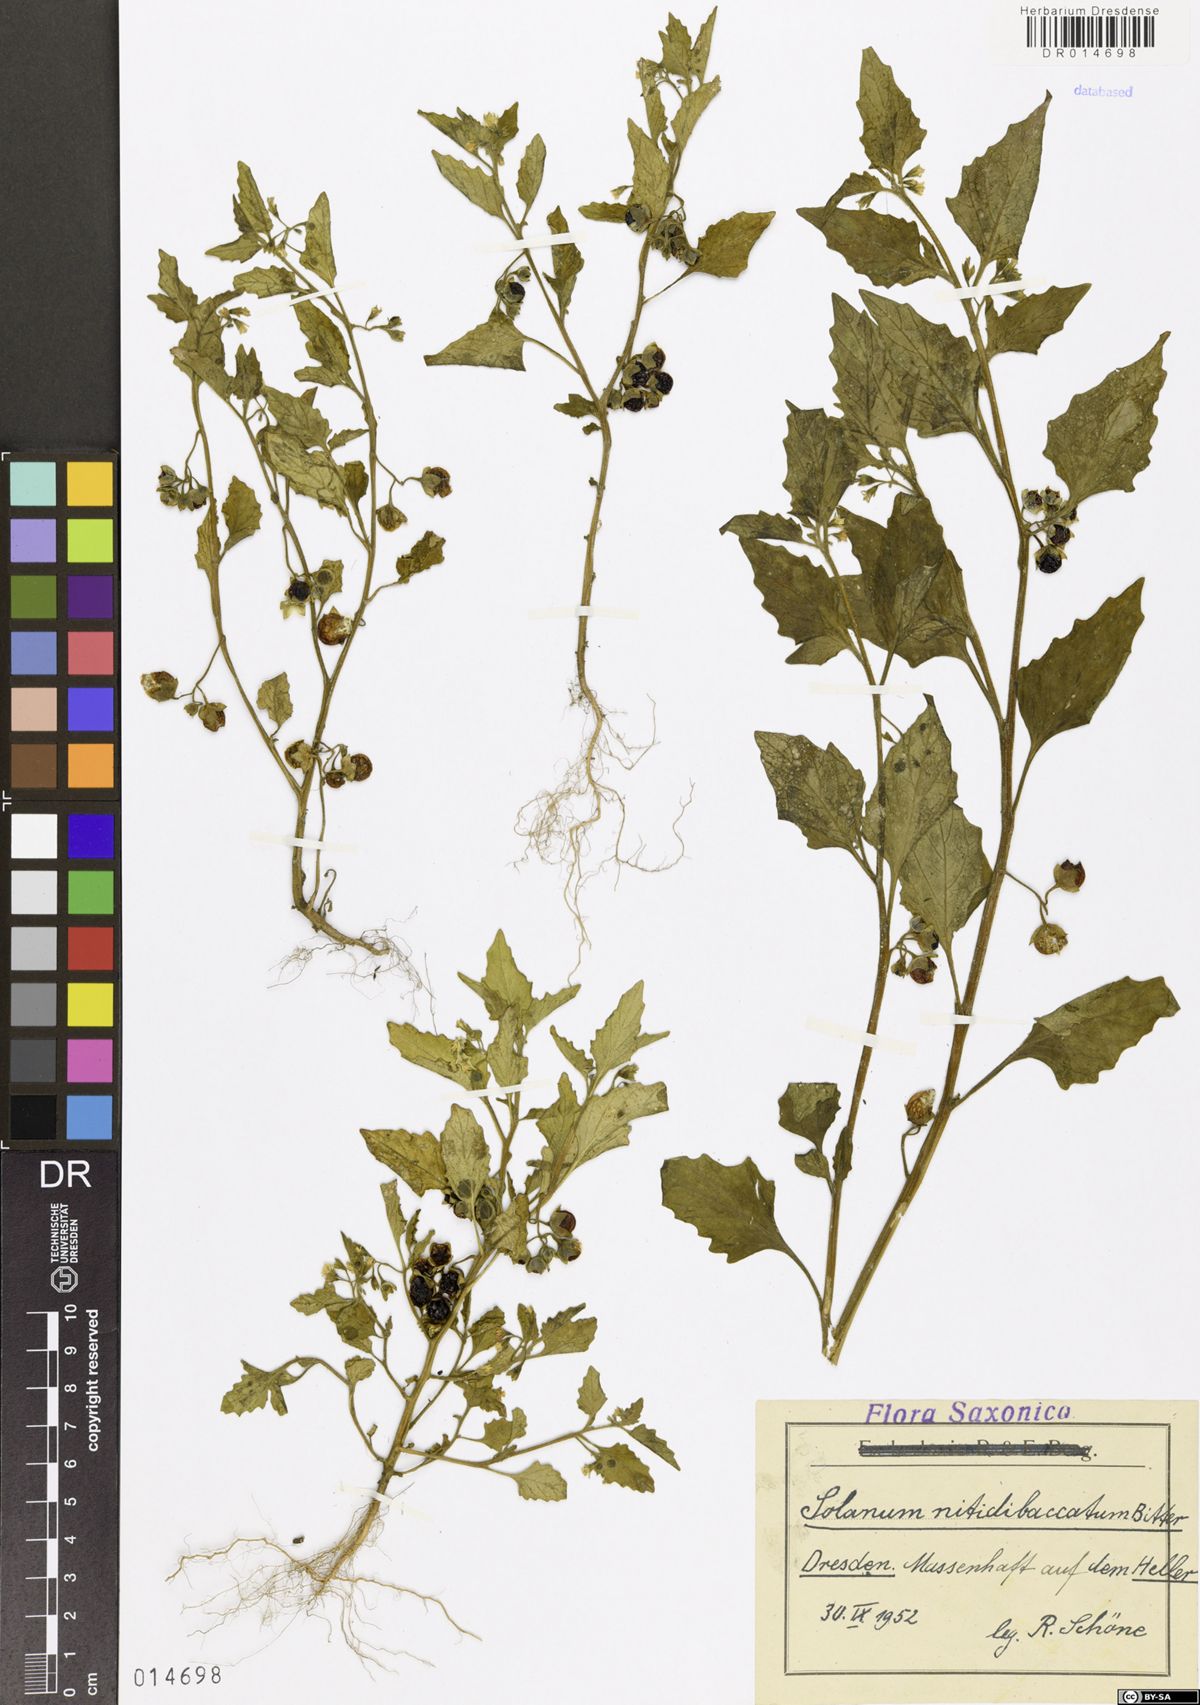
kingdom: Plantae
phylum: Tracheophyta
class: Magnoliopsida
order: Solanales
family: Solanaceae
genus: Solanum
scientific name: Solanum nitidibaccatum
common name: Hairy nightshade
